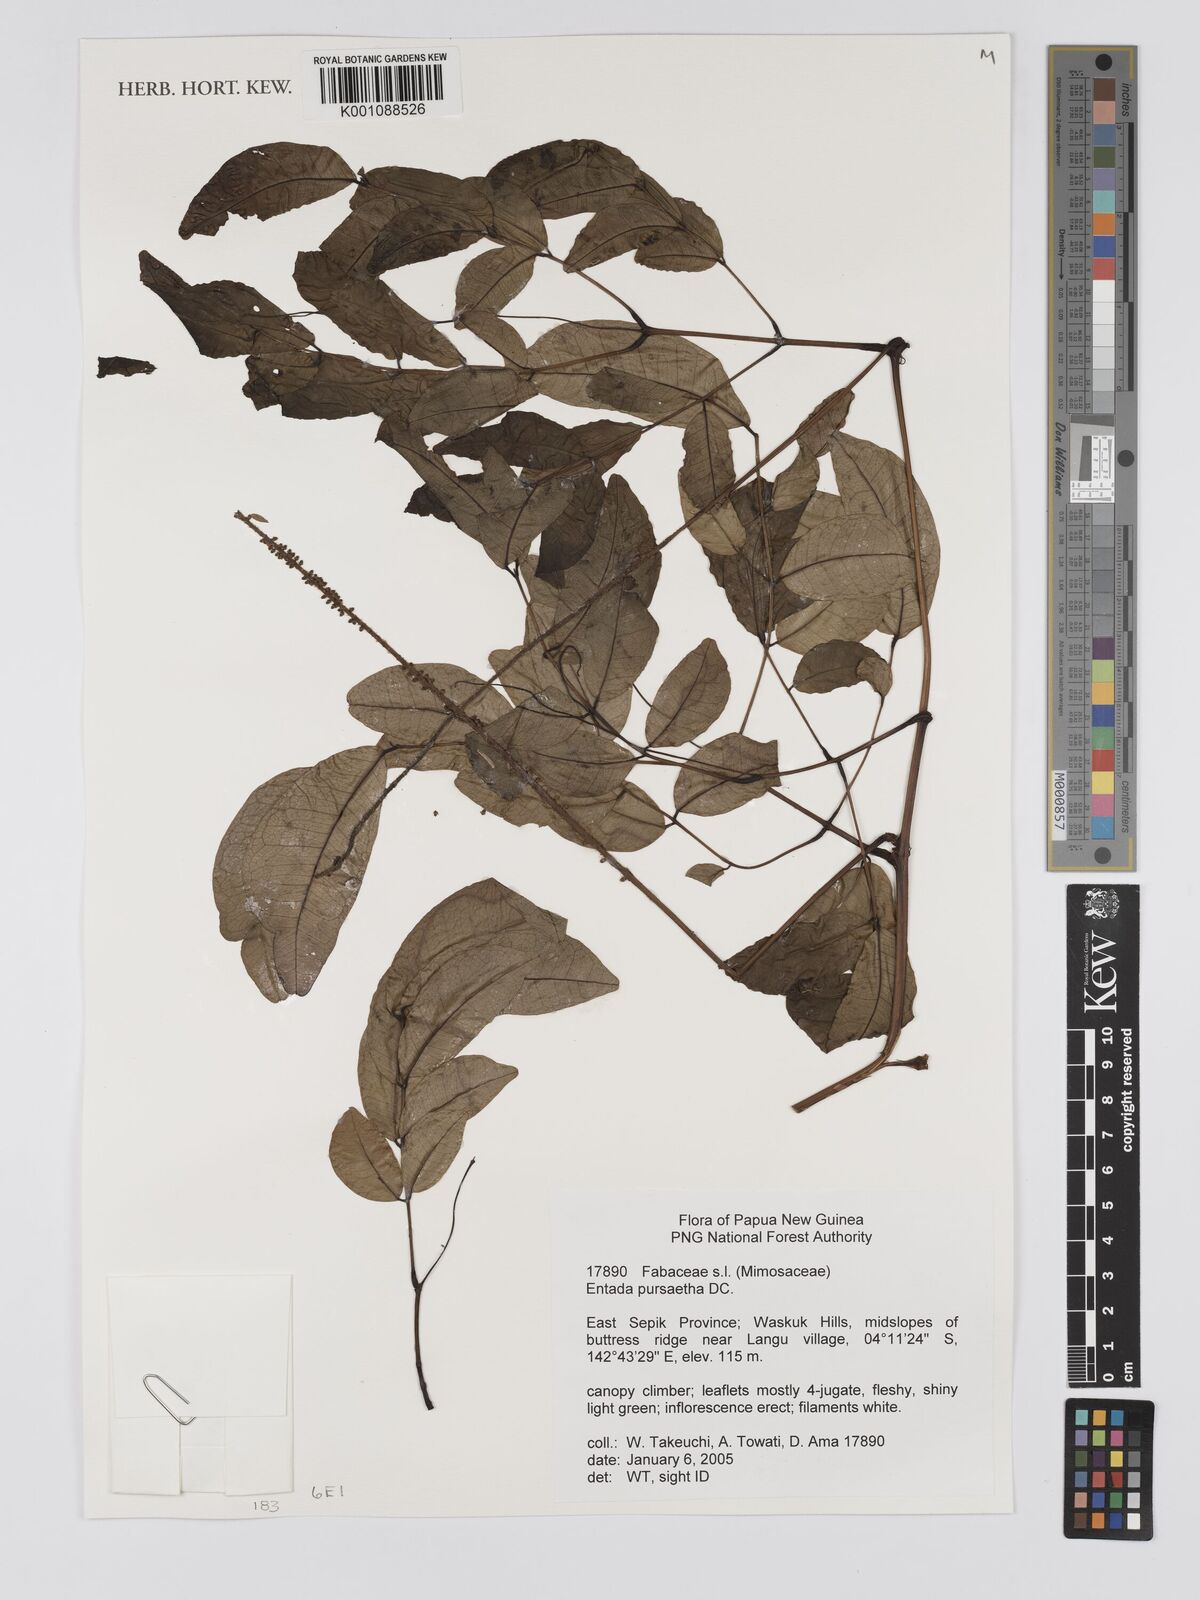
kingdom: Plantae
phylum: Tracheophyta
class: Magnoliopsida
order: Fabales
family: Fabaceae
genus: Entada
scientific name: Entada rheedei
